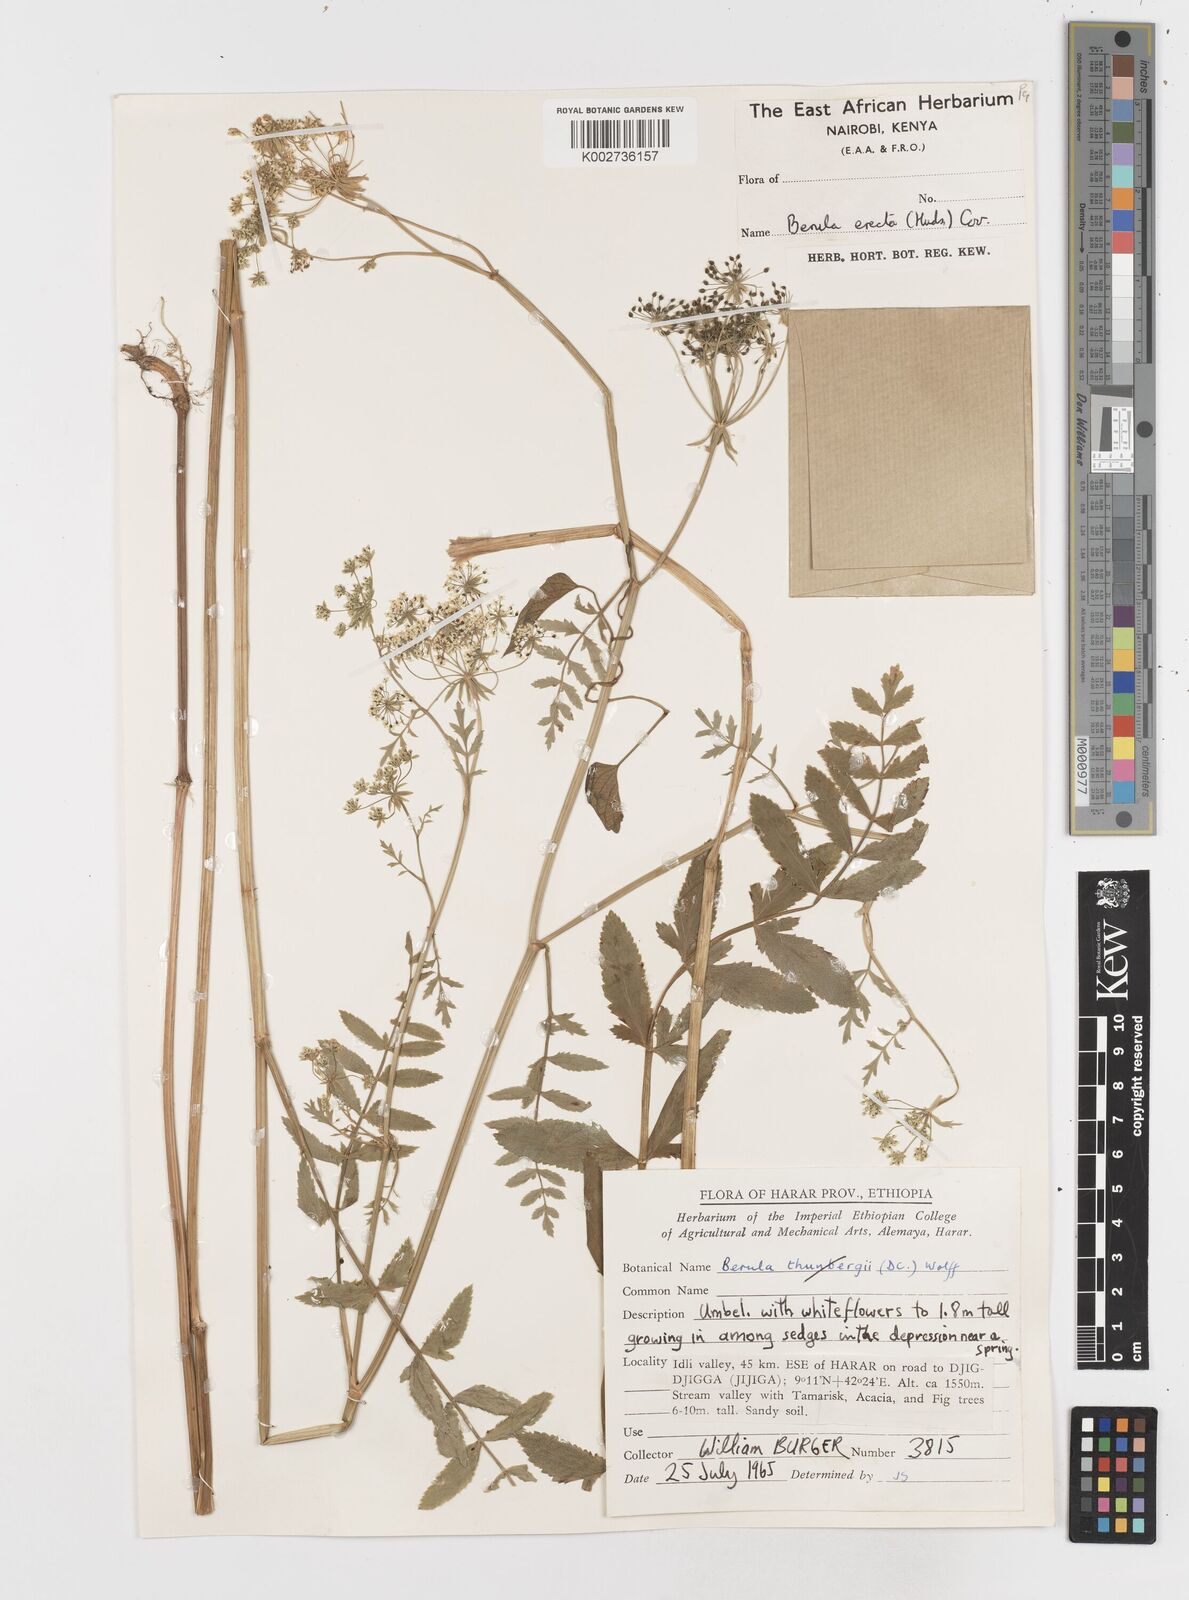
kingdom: Plantae
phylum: Tracheophyta
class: Magnoliopsida
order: Apiales
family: Apiaceae
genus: Berula
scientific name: Berula erecta
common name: Lesser water-parsnip
